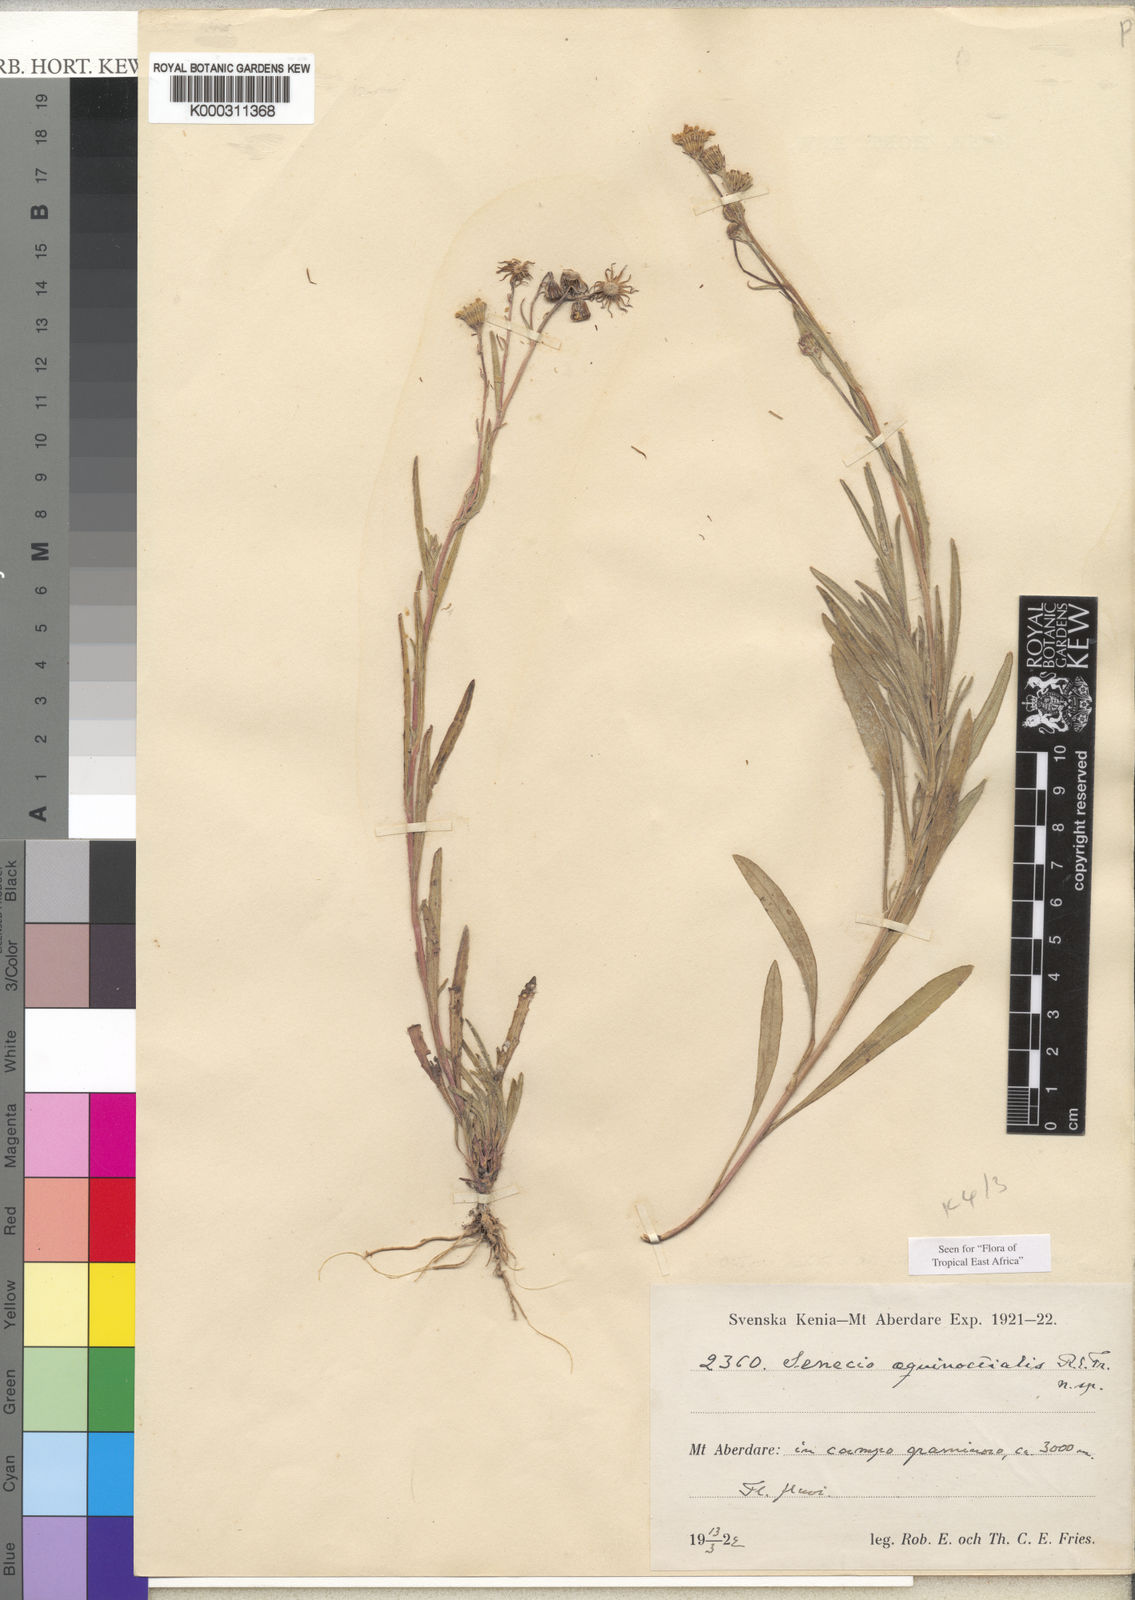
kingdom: Plantae
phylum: Tracheophyta
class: Magnoliopsida
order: Asterales
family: Asteraceae
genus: Senecio
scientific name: Senecio aequinoctialis
